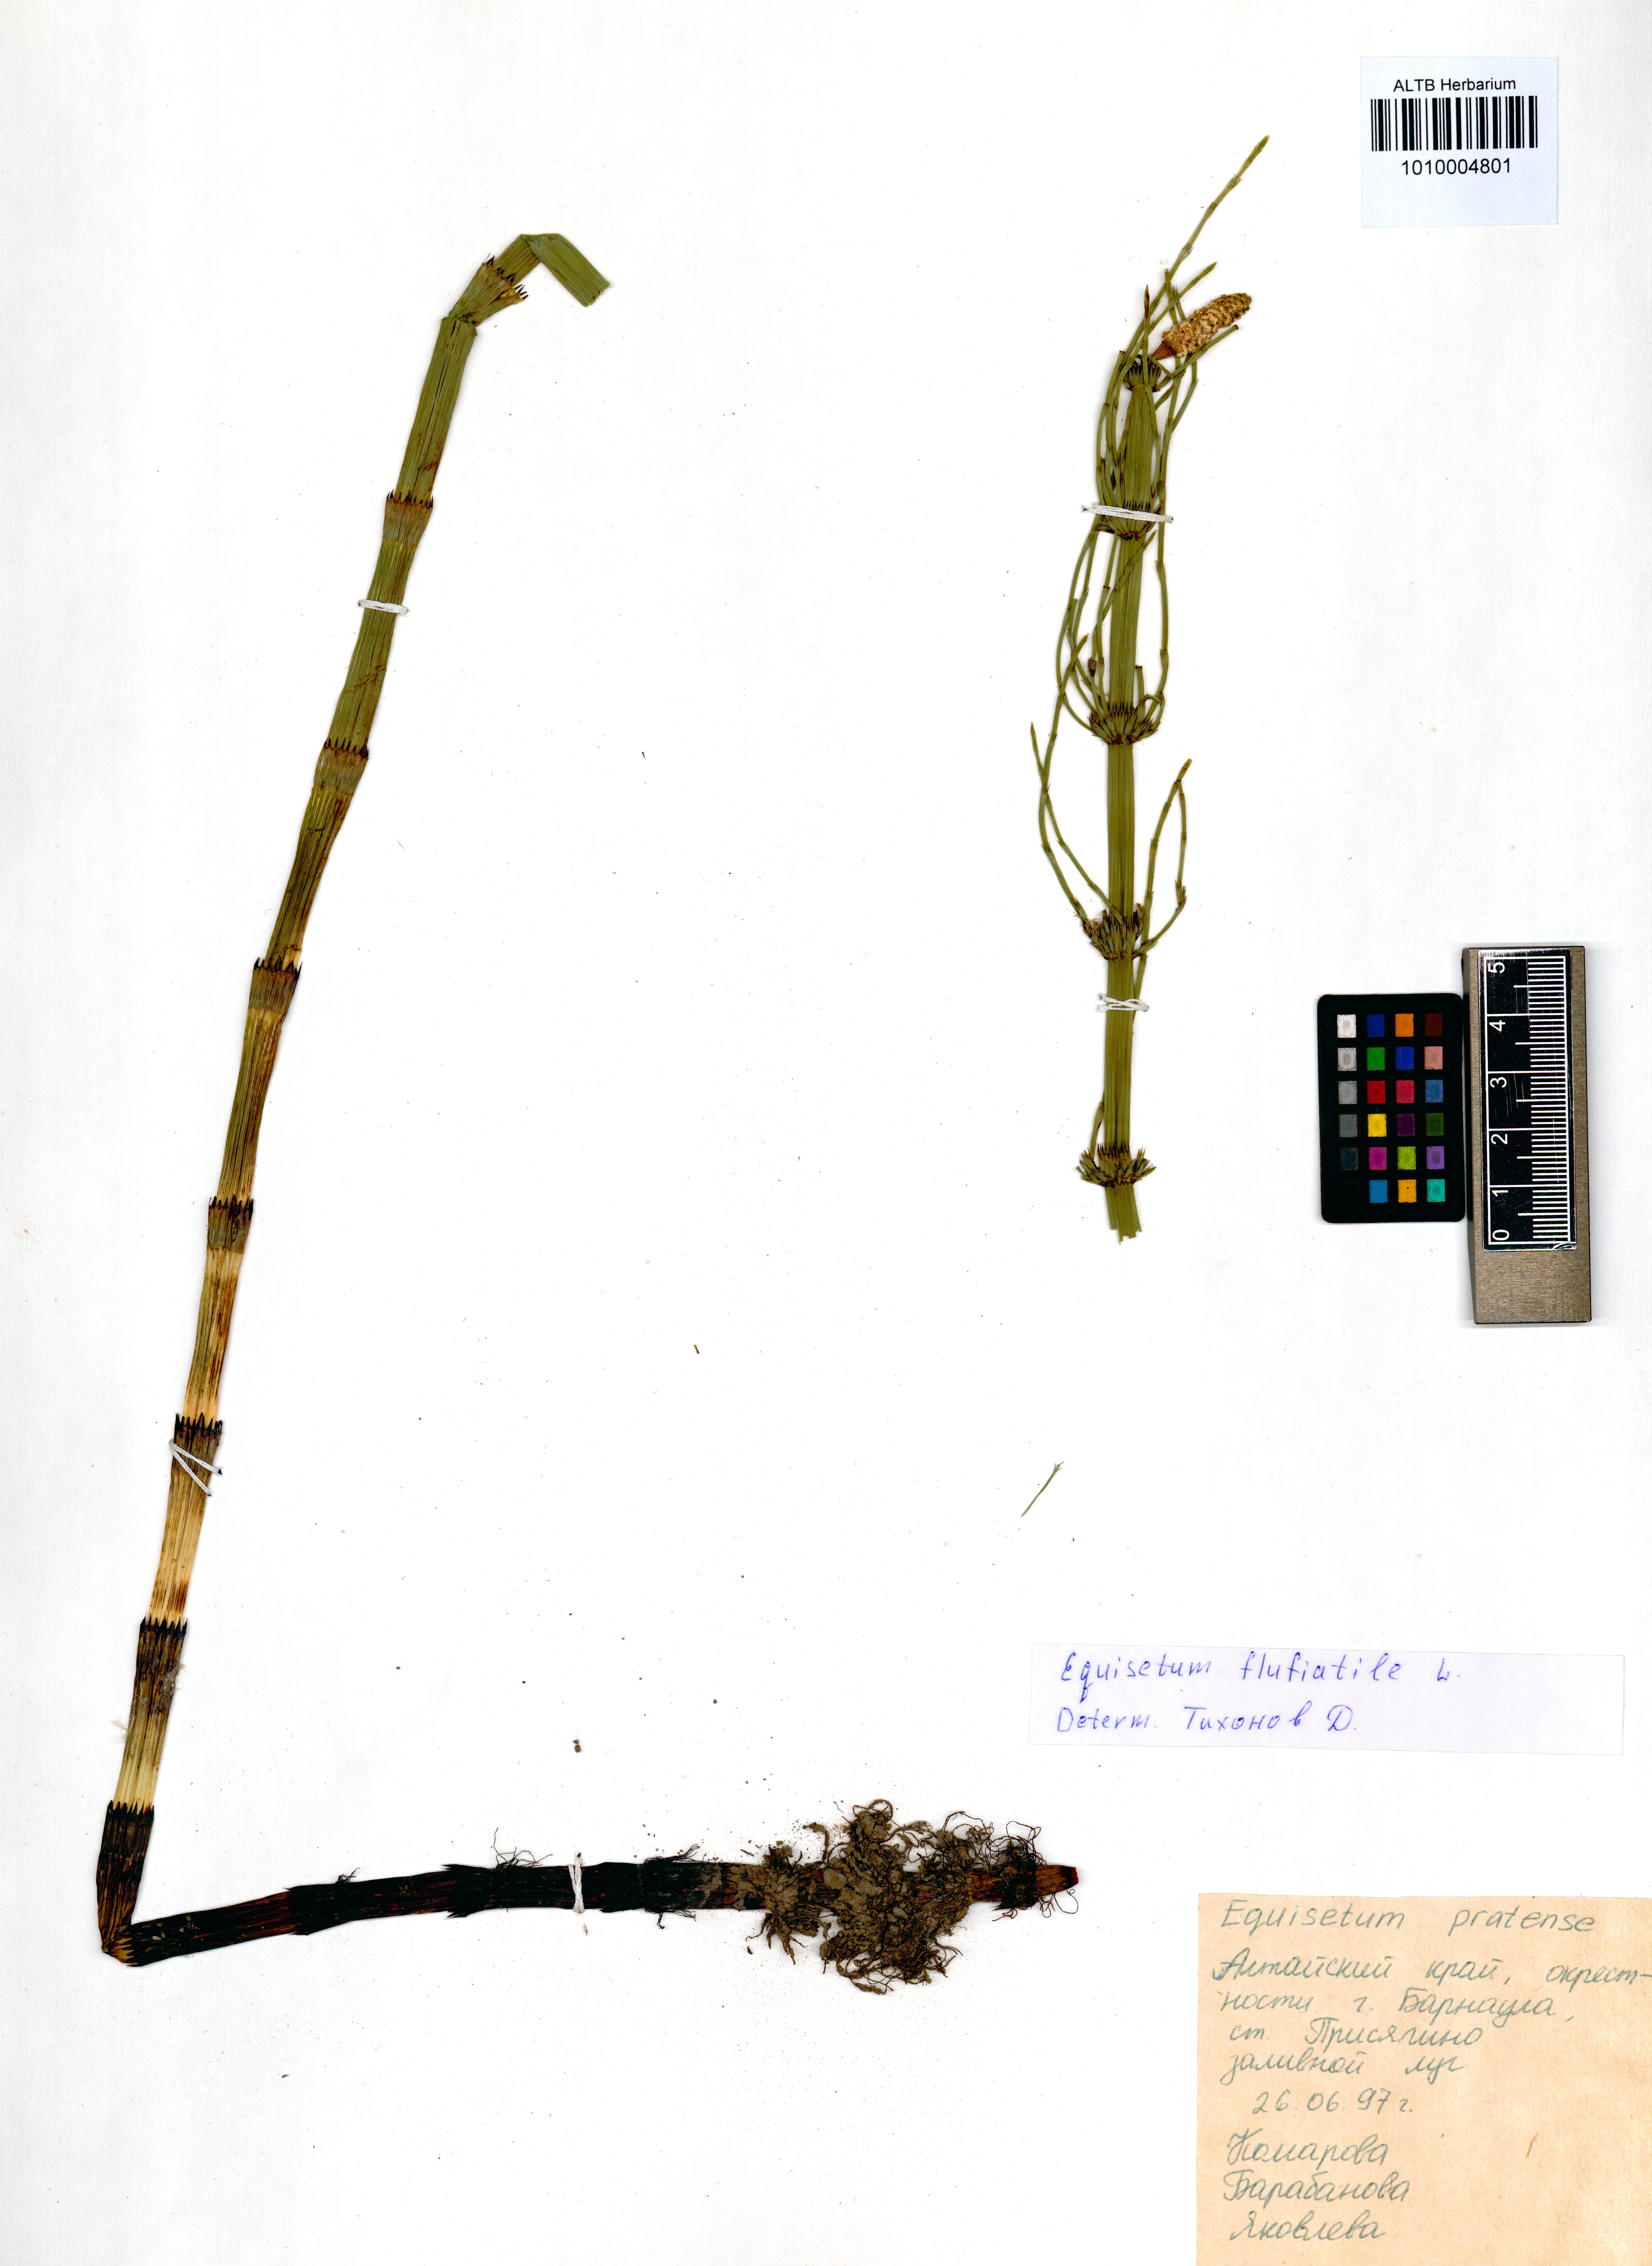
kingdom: Plantae
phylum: Tracheophyta
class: Polypodiopsida
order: Equisetales
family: Equisetaceae
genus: Equisetum
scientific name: Equisetum fluviatile
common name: Water horsetail
